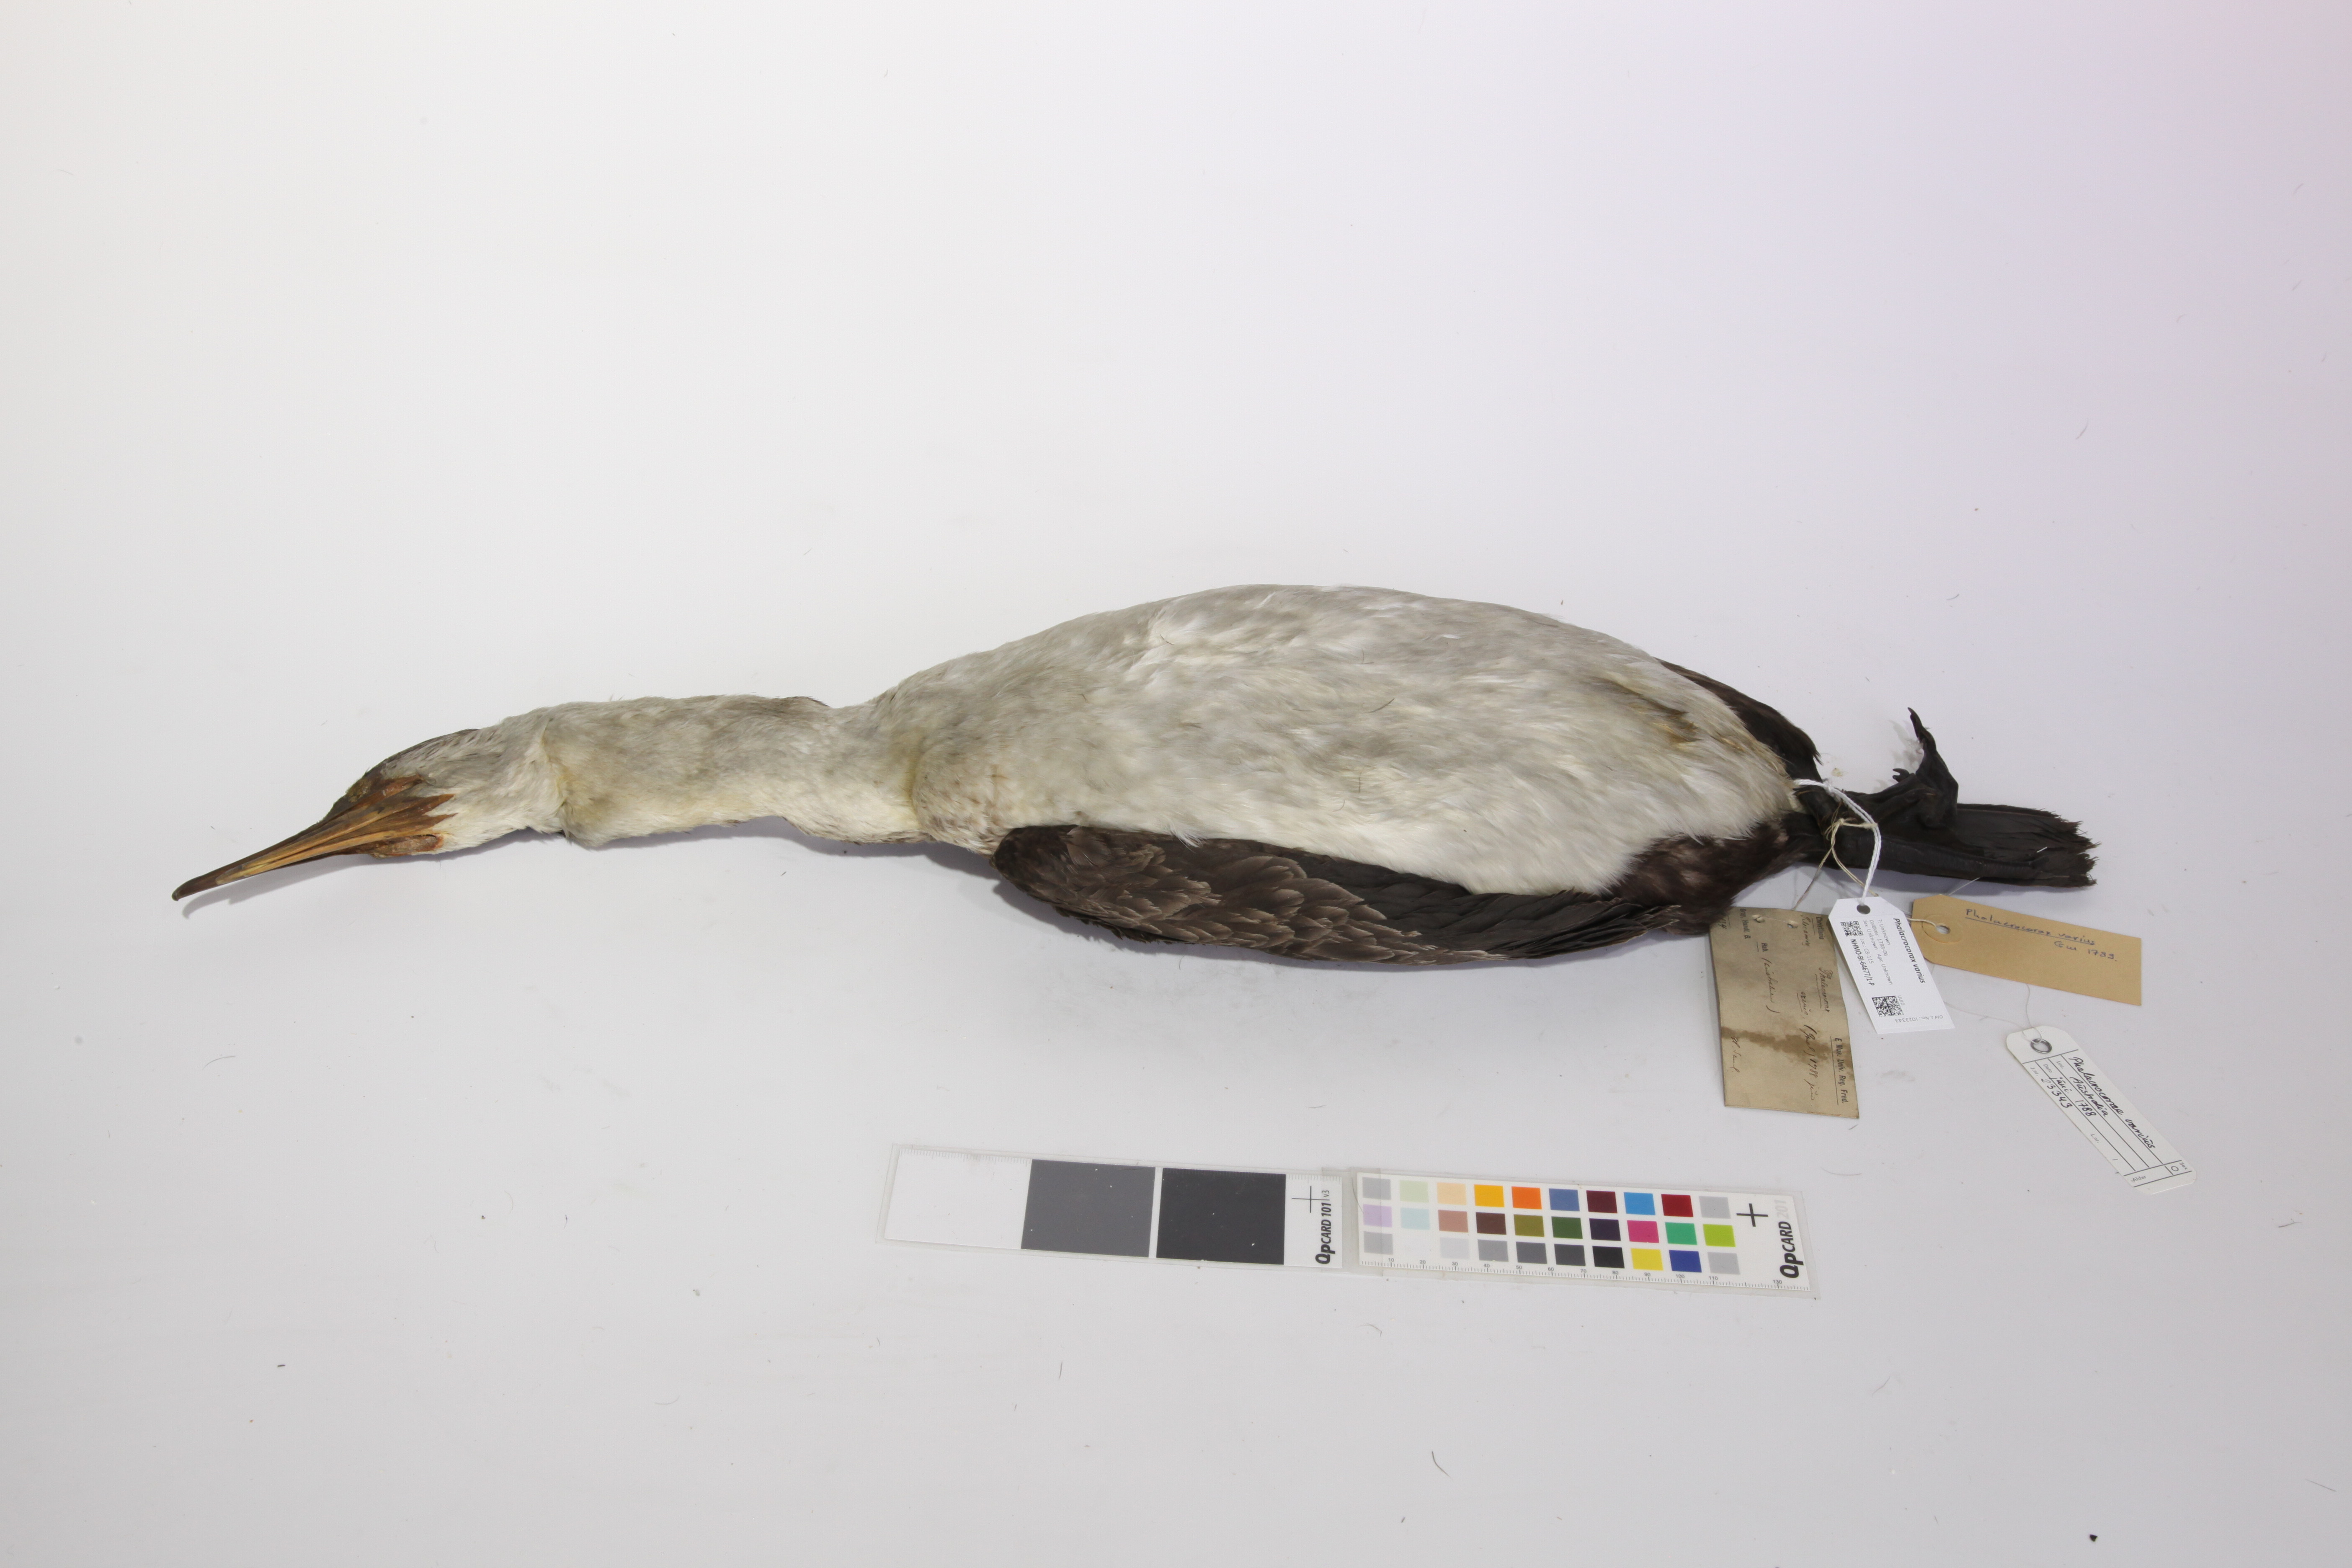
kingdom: Animalia
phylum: Chordata
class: Aves
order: Suliformes
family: Phalacrocoracidae
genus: Phalacrocorax
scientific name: Phalacrocorax varius
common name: Pied cormorant
